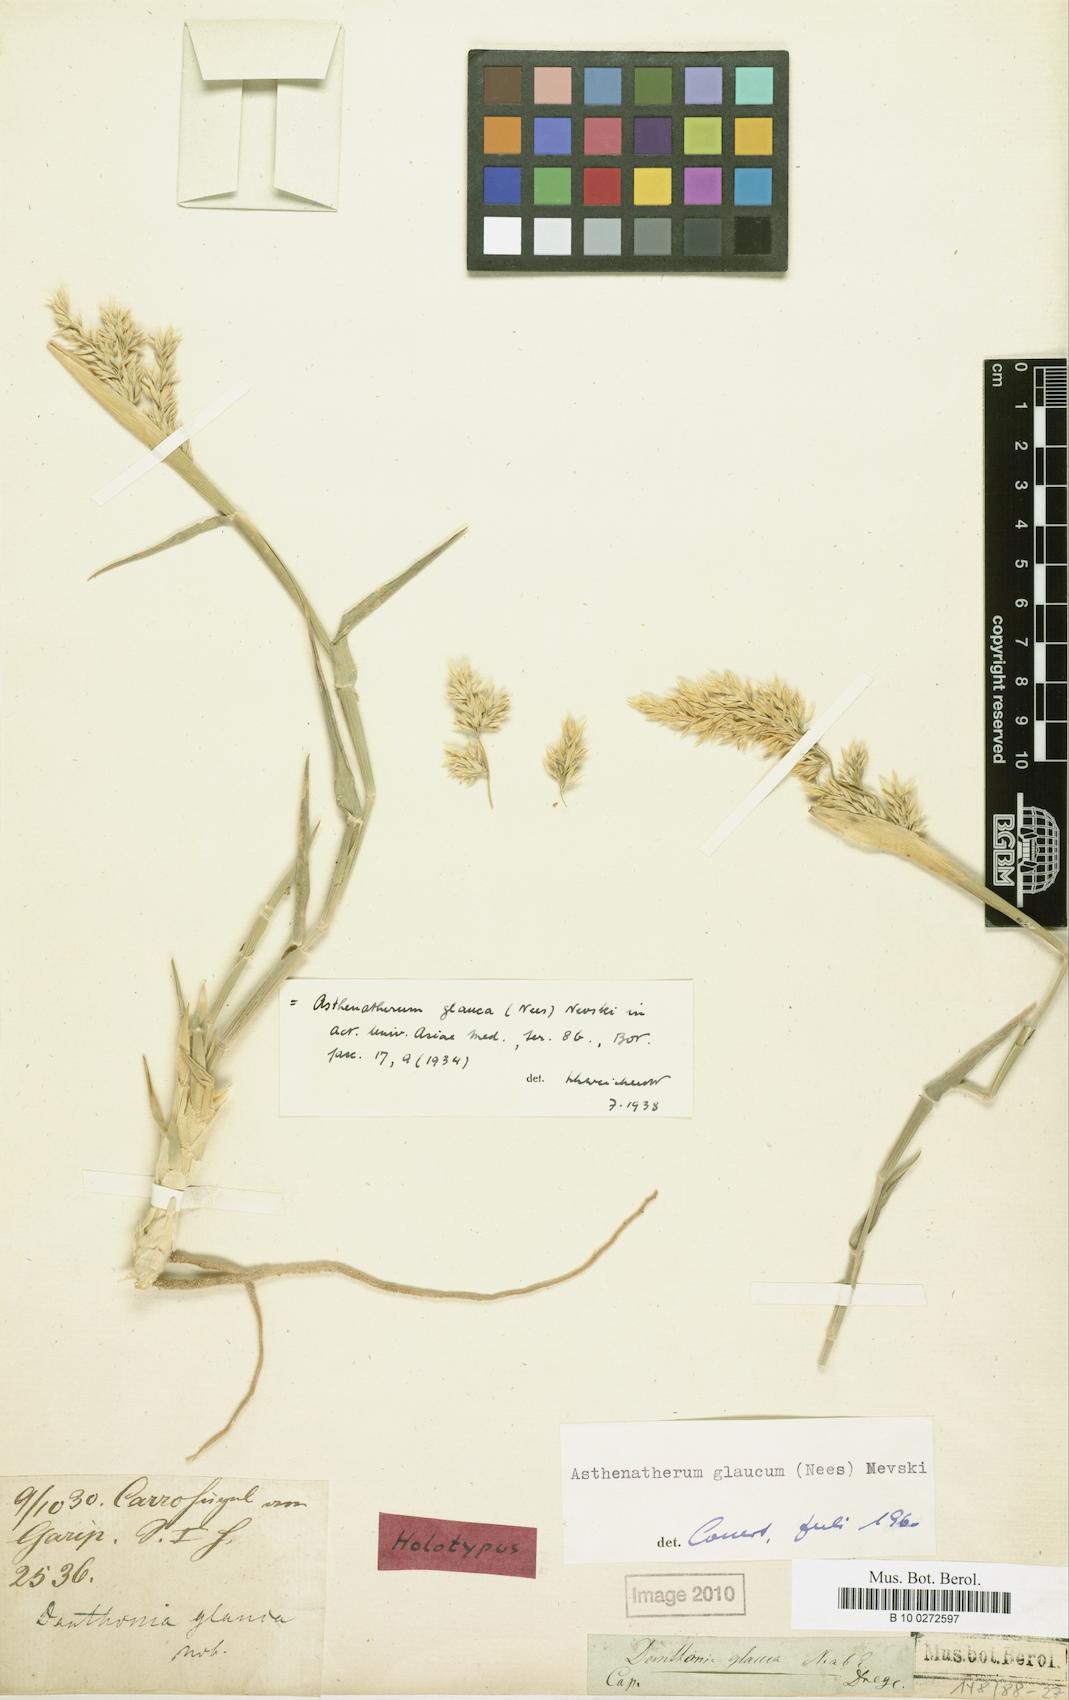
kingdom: Plantae
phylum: Tracheophyta
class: Liliopsida
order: Poales
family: Poaceae
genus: Centropodia
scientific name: Centropodia glauca
